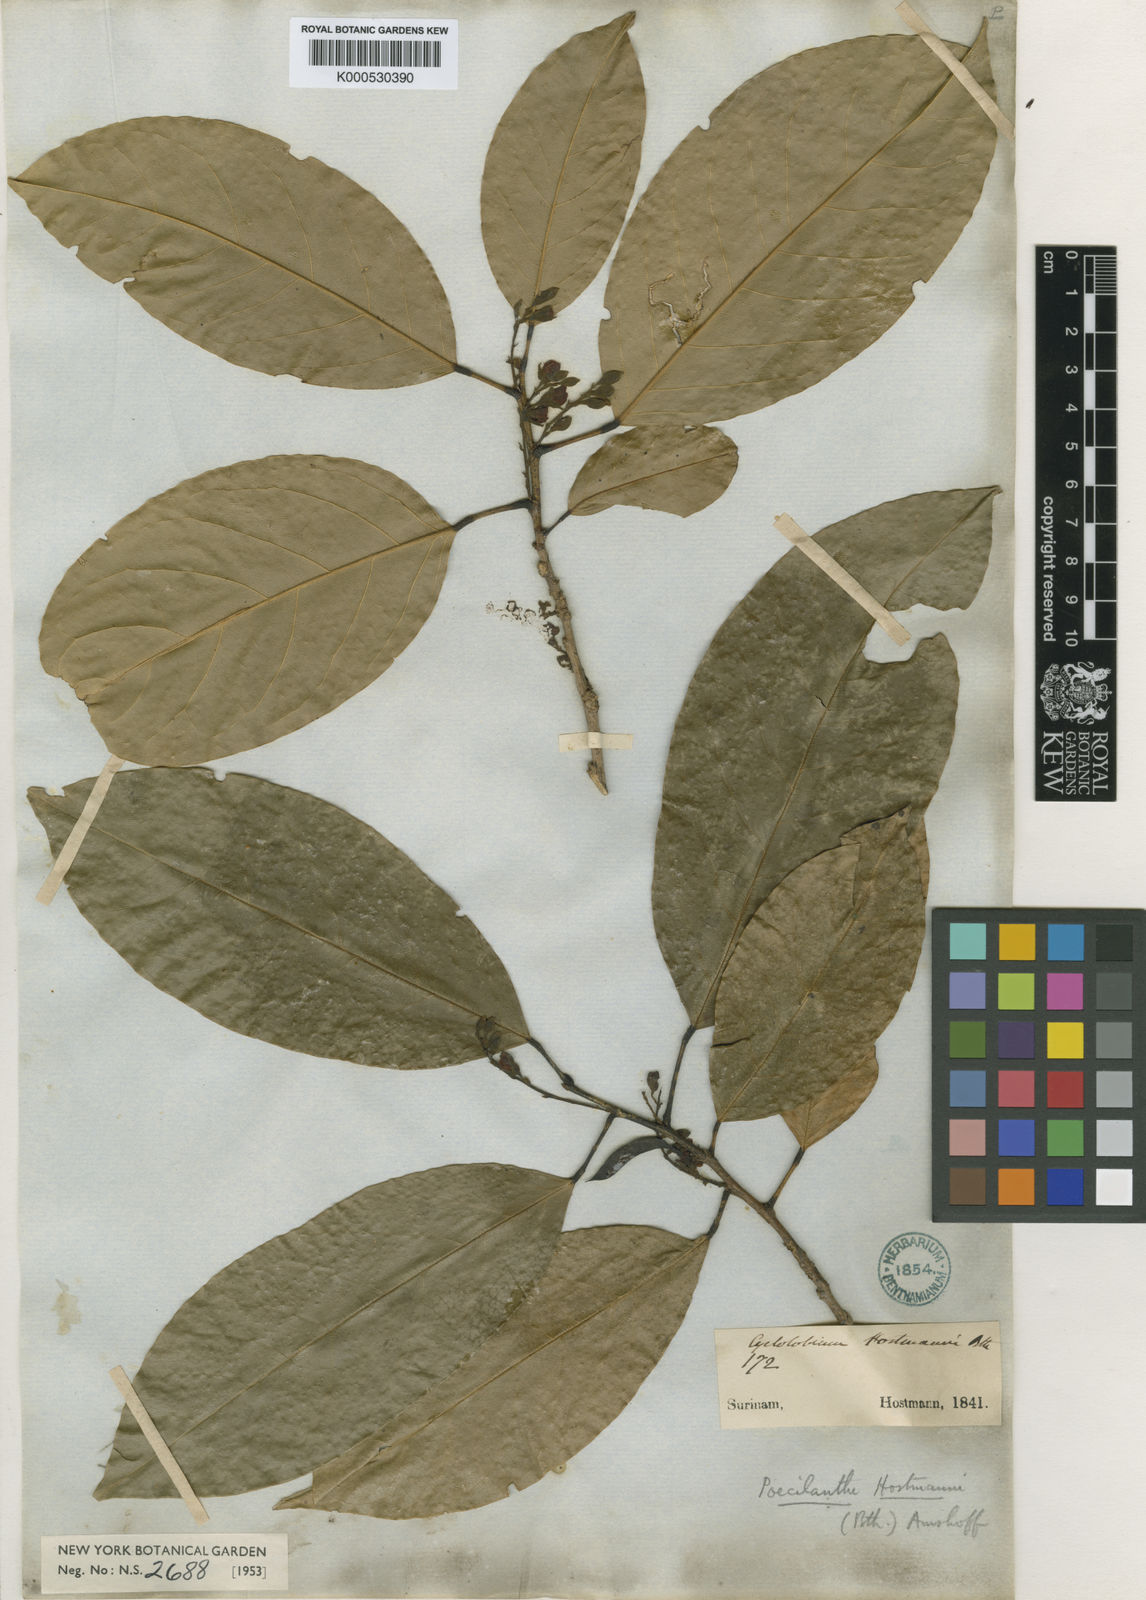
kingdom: Plantae
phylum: Tracheophyta
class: Magnoliopsida
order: Fabales
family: Fabaceae
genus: Limadendron
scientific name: Limadendron hostmannii
